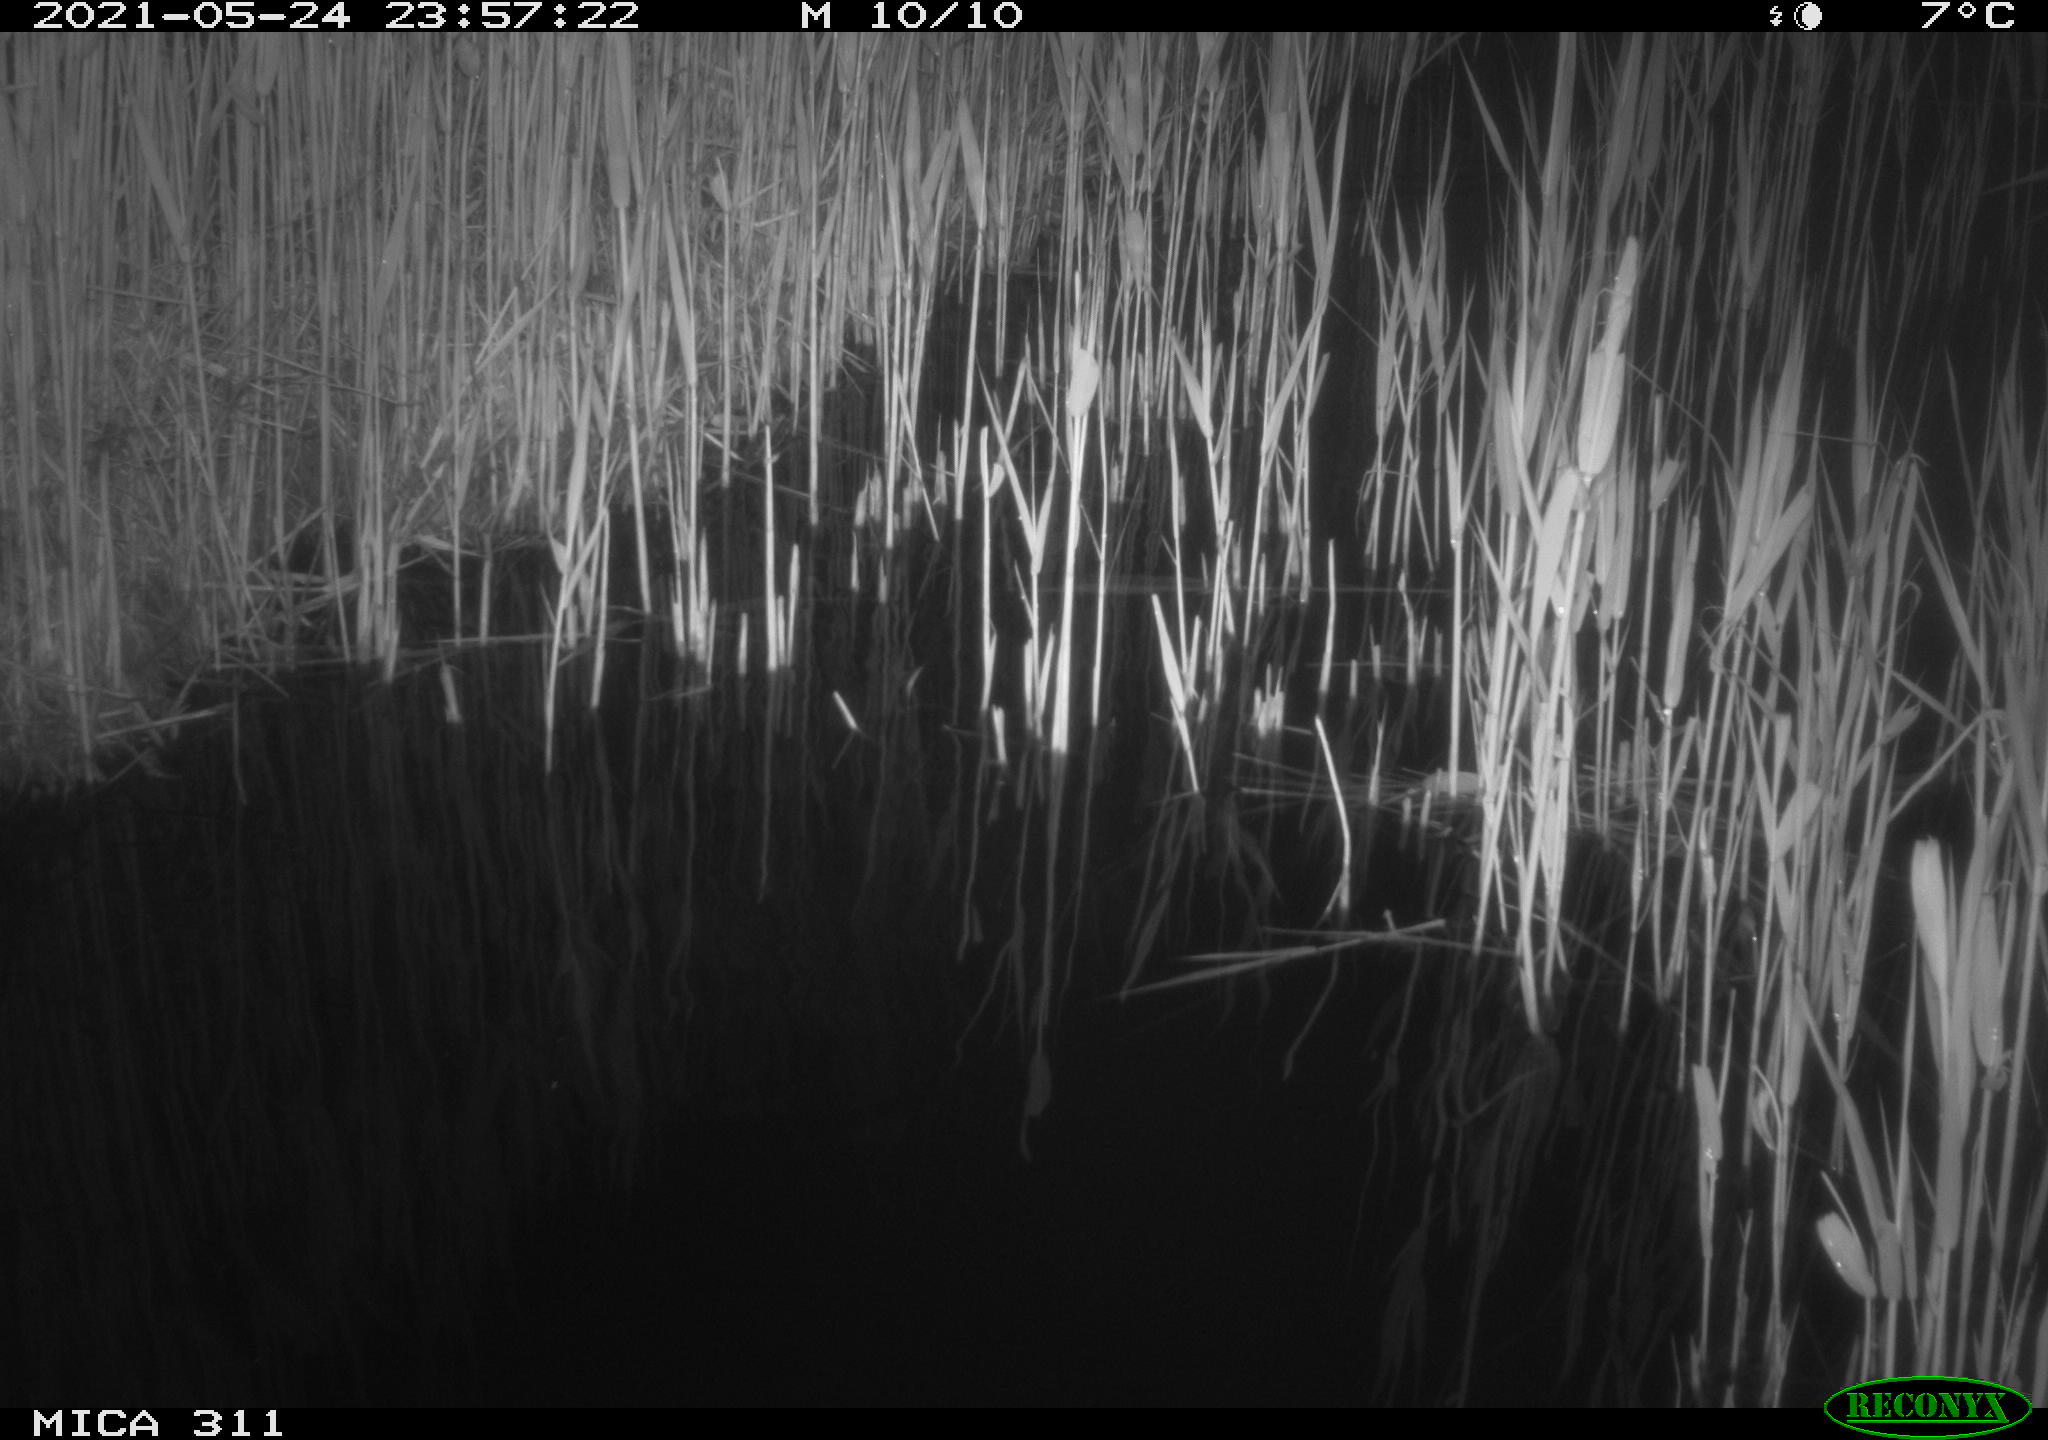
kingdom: Animalia
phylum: Chordata
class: Aves
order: Anseriformes
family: Anatidae
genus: Anas
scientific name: Anas platyrhynchos
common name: Mallard
